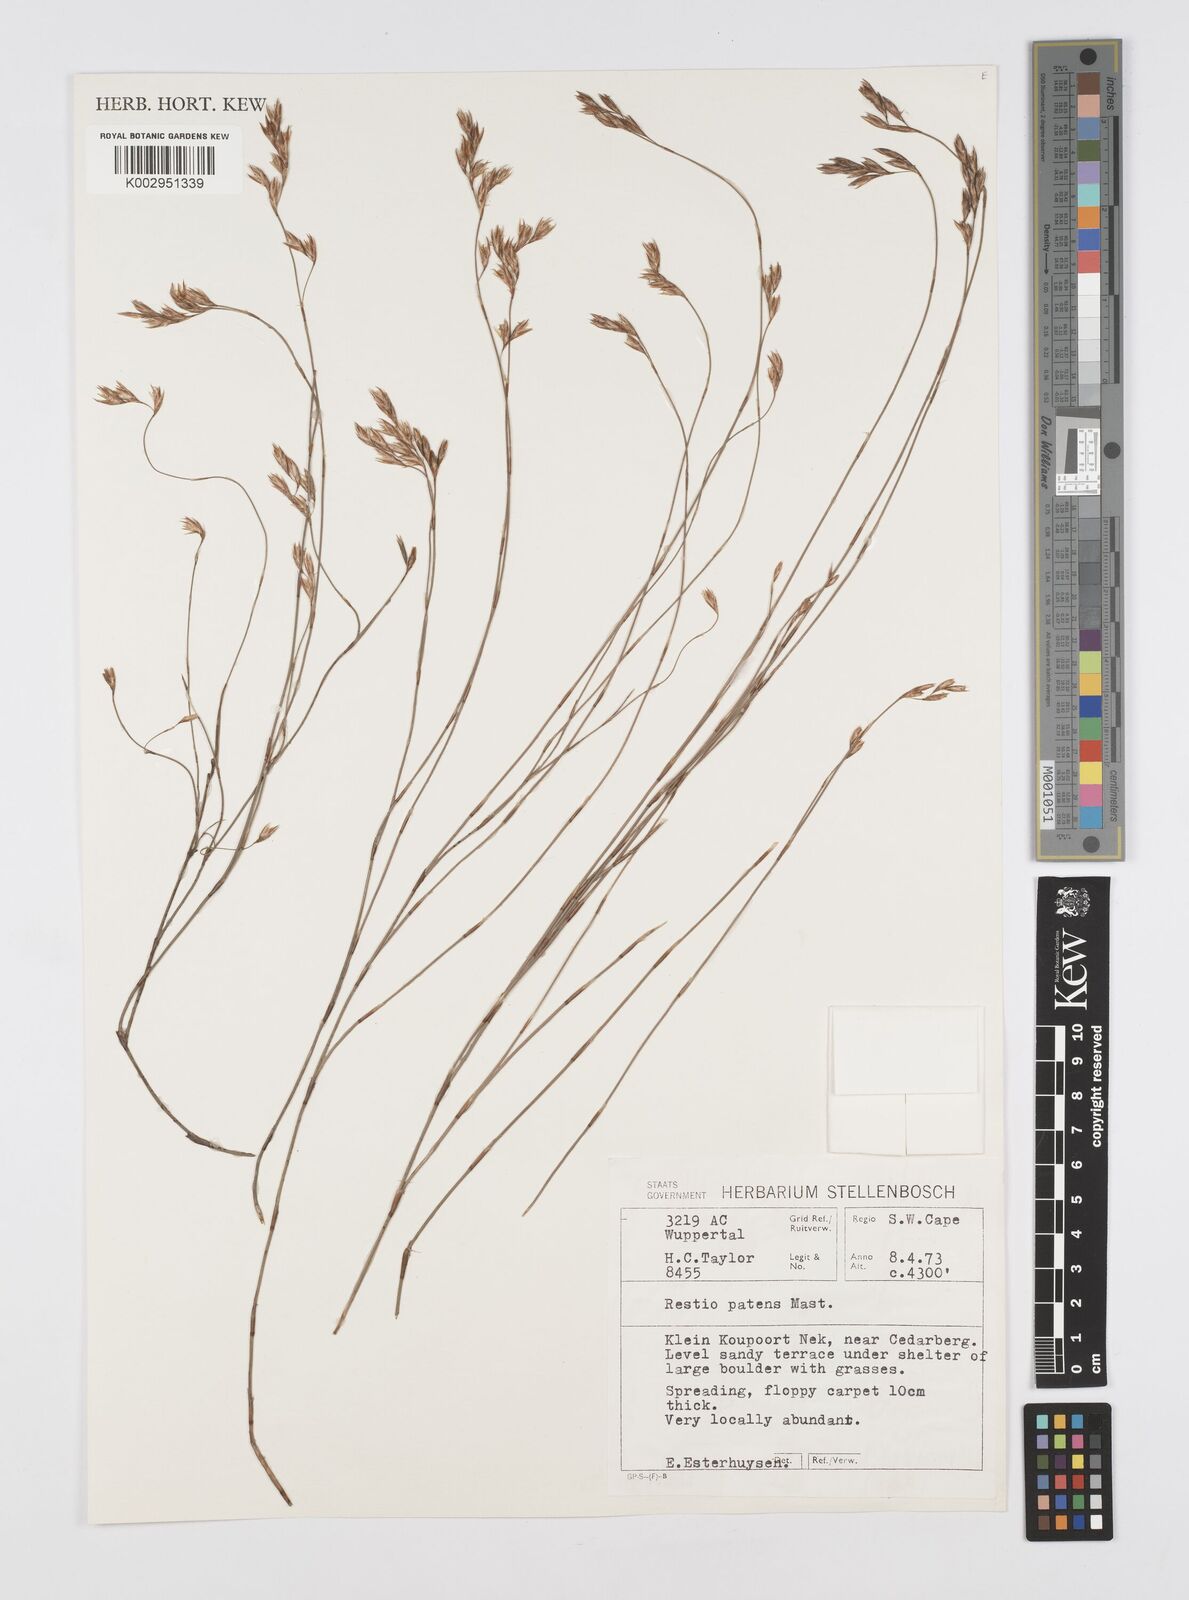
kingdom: Plantae
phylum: Tracheophyta
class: Liliopsida
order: Poales
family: Restionaceae
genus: Restio
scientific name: Restio patens
